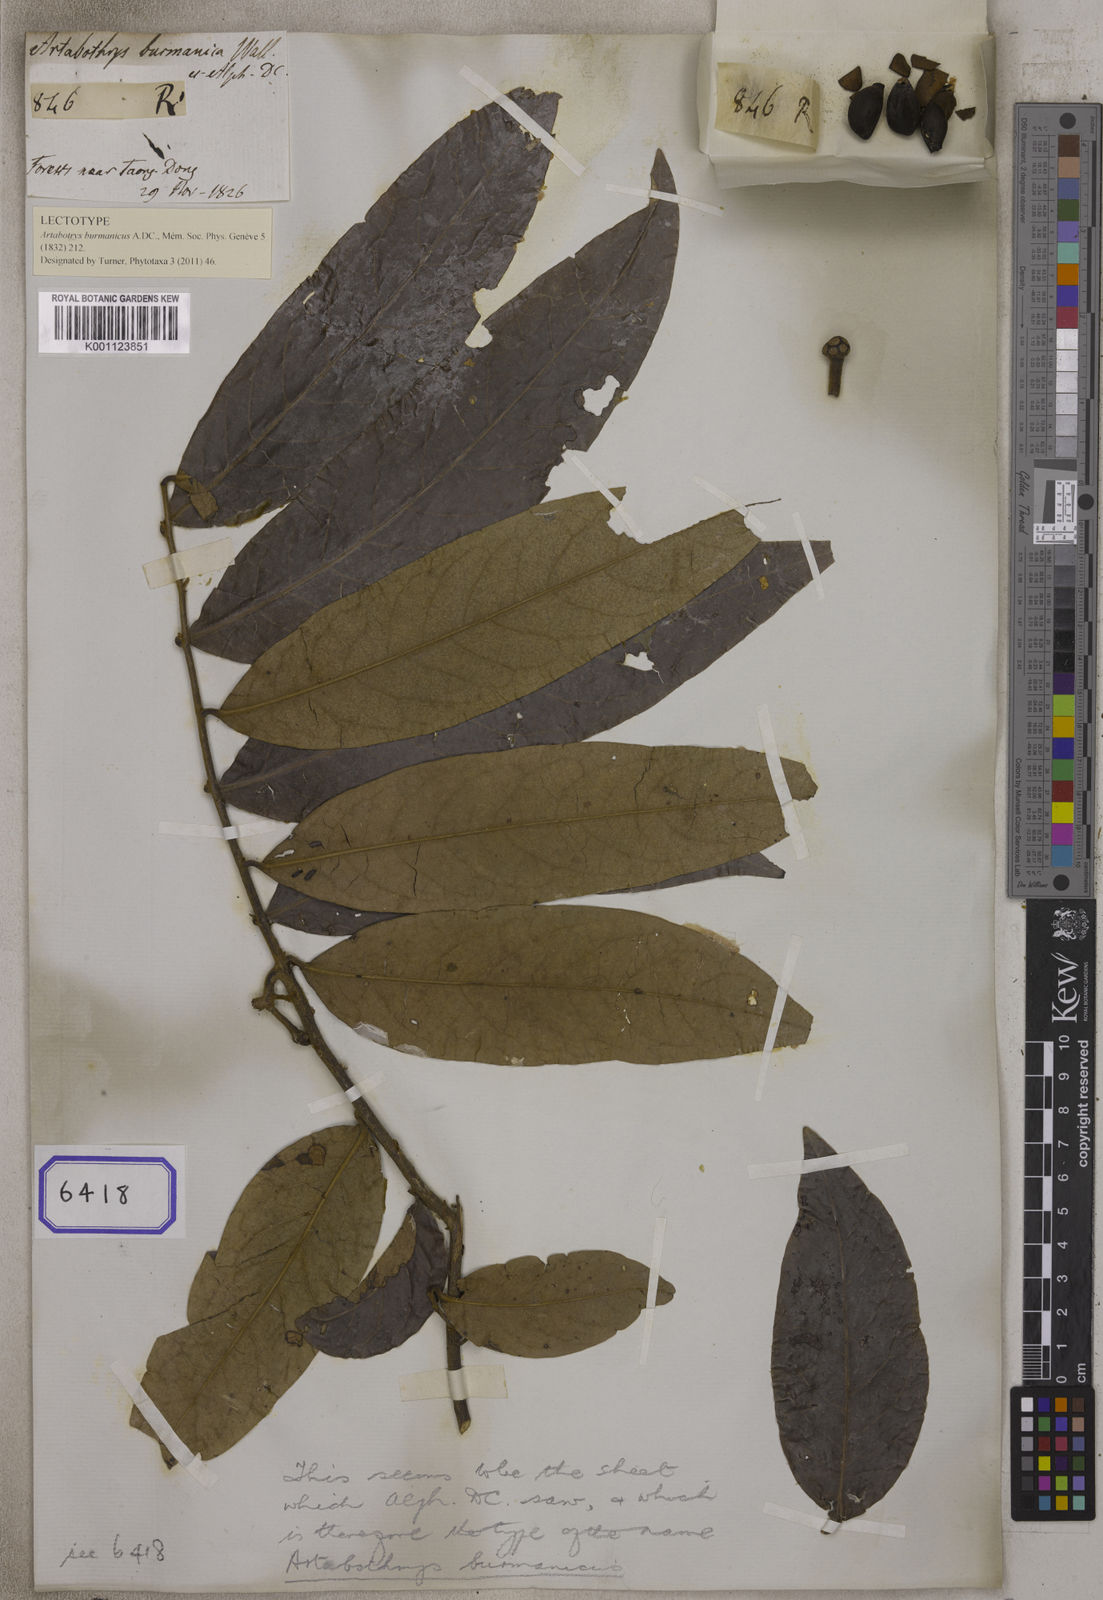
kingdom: Plantae
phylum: Tracheophyta
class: Magnoliopsida
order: Magnoliales
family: Annonaceae
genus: Artabotrys
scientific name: Artabotrys burmanicus
